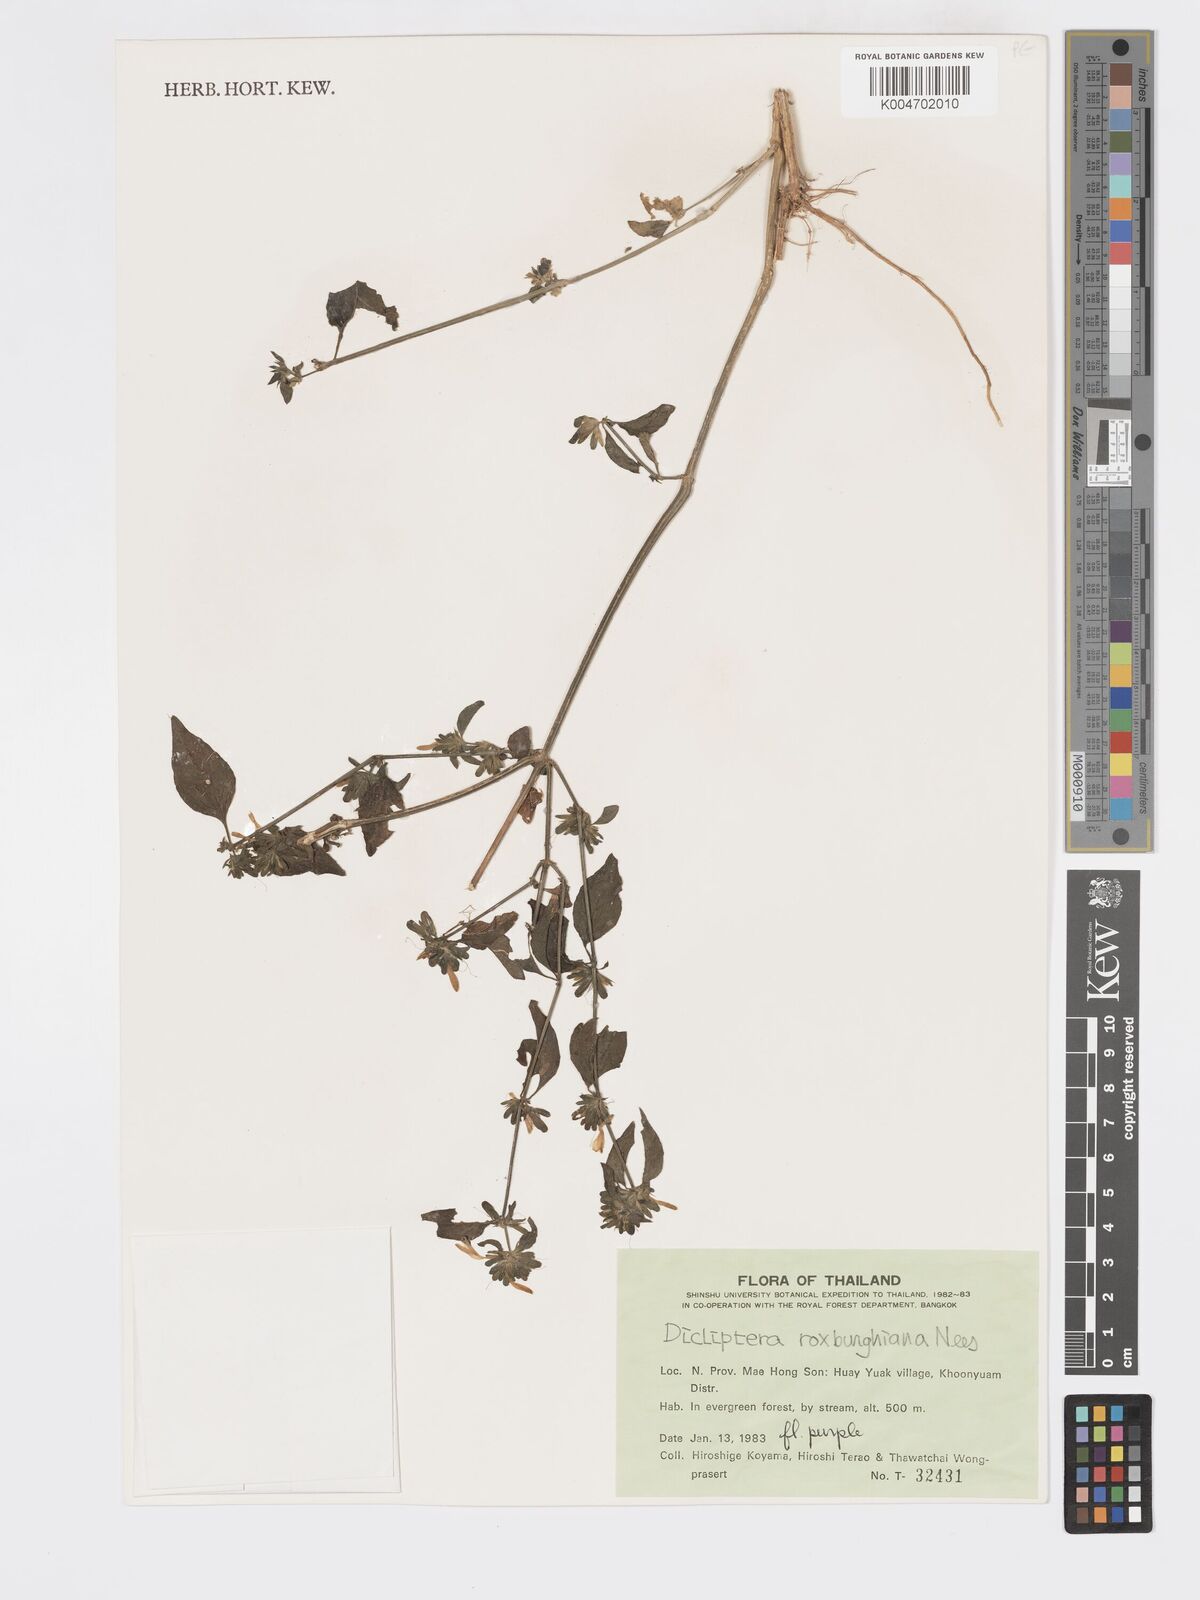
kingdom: Plantae
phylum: Tracheophyta
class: Magnoliopsida
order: Lamiales
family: Acanthaceae
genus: Dicliptera
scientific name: Dicliptera chinensis
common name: Chinese foldwing
